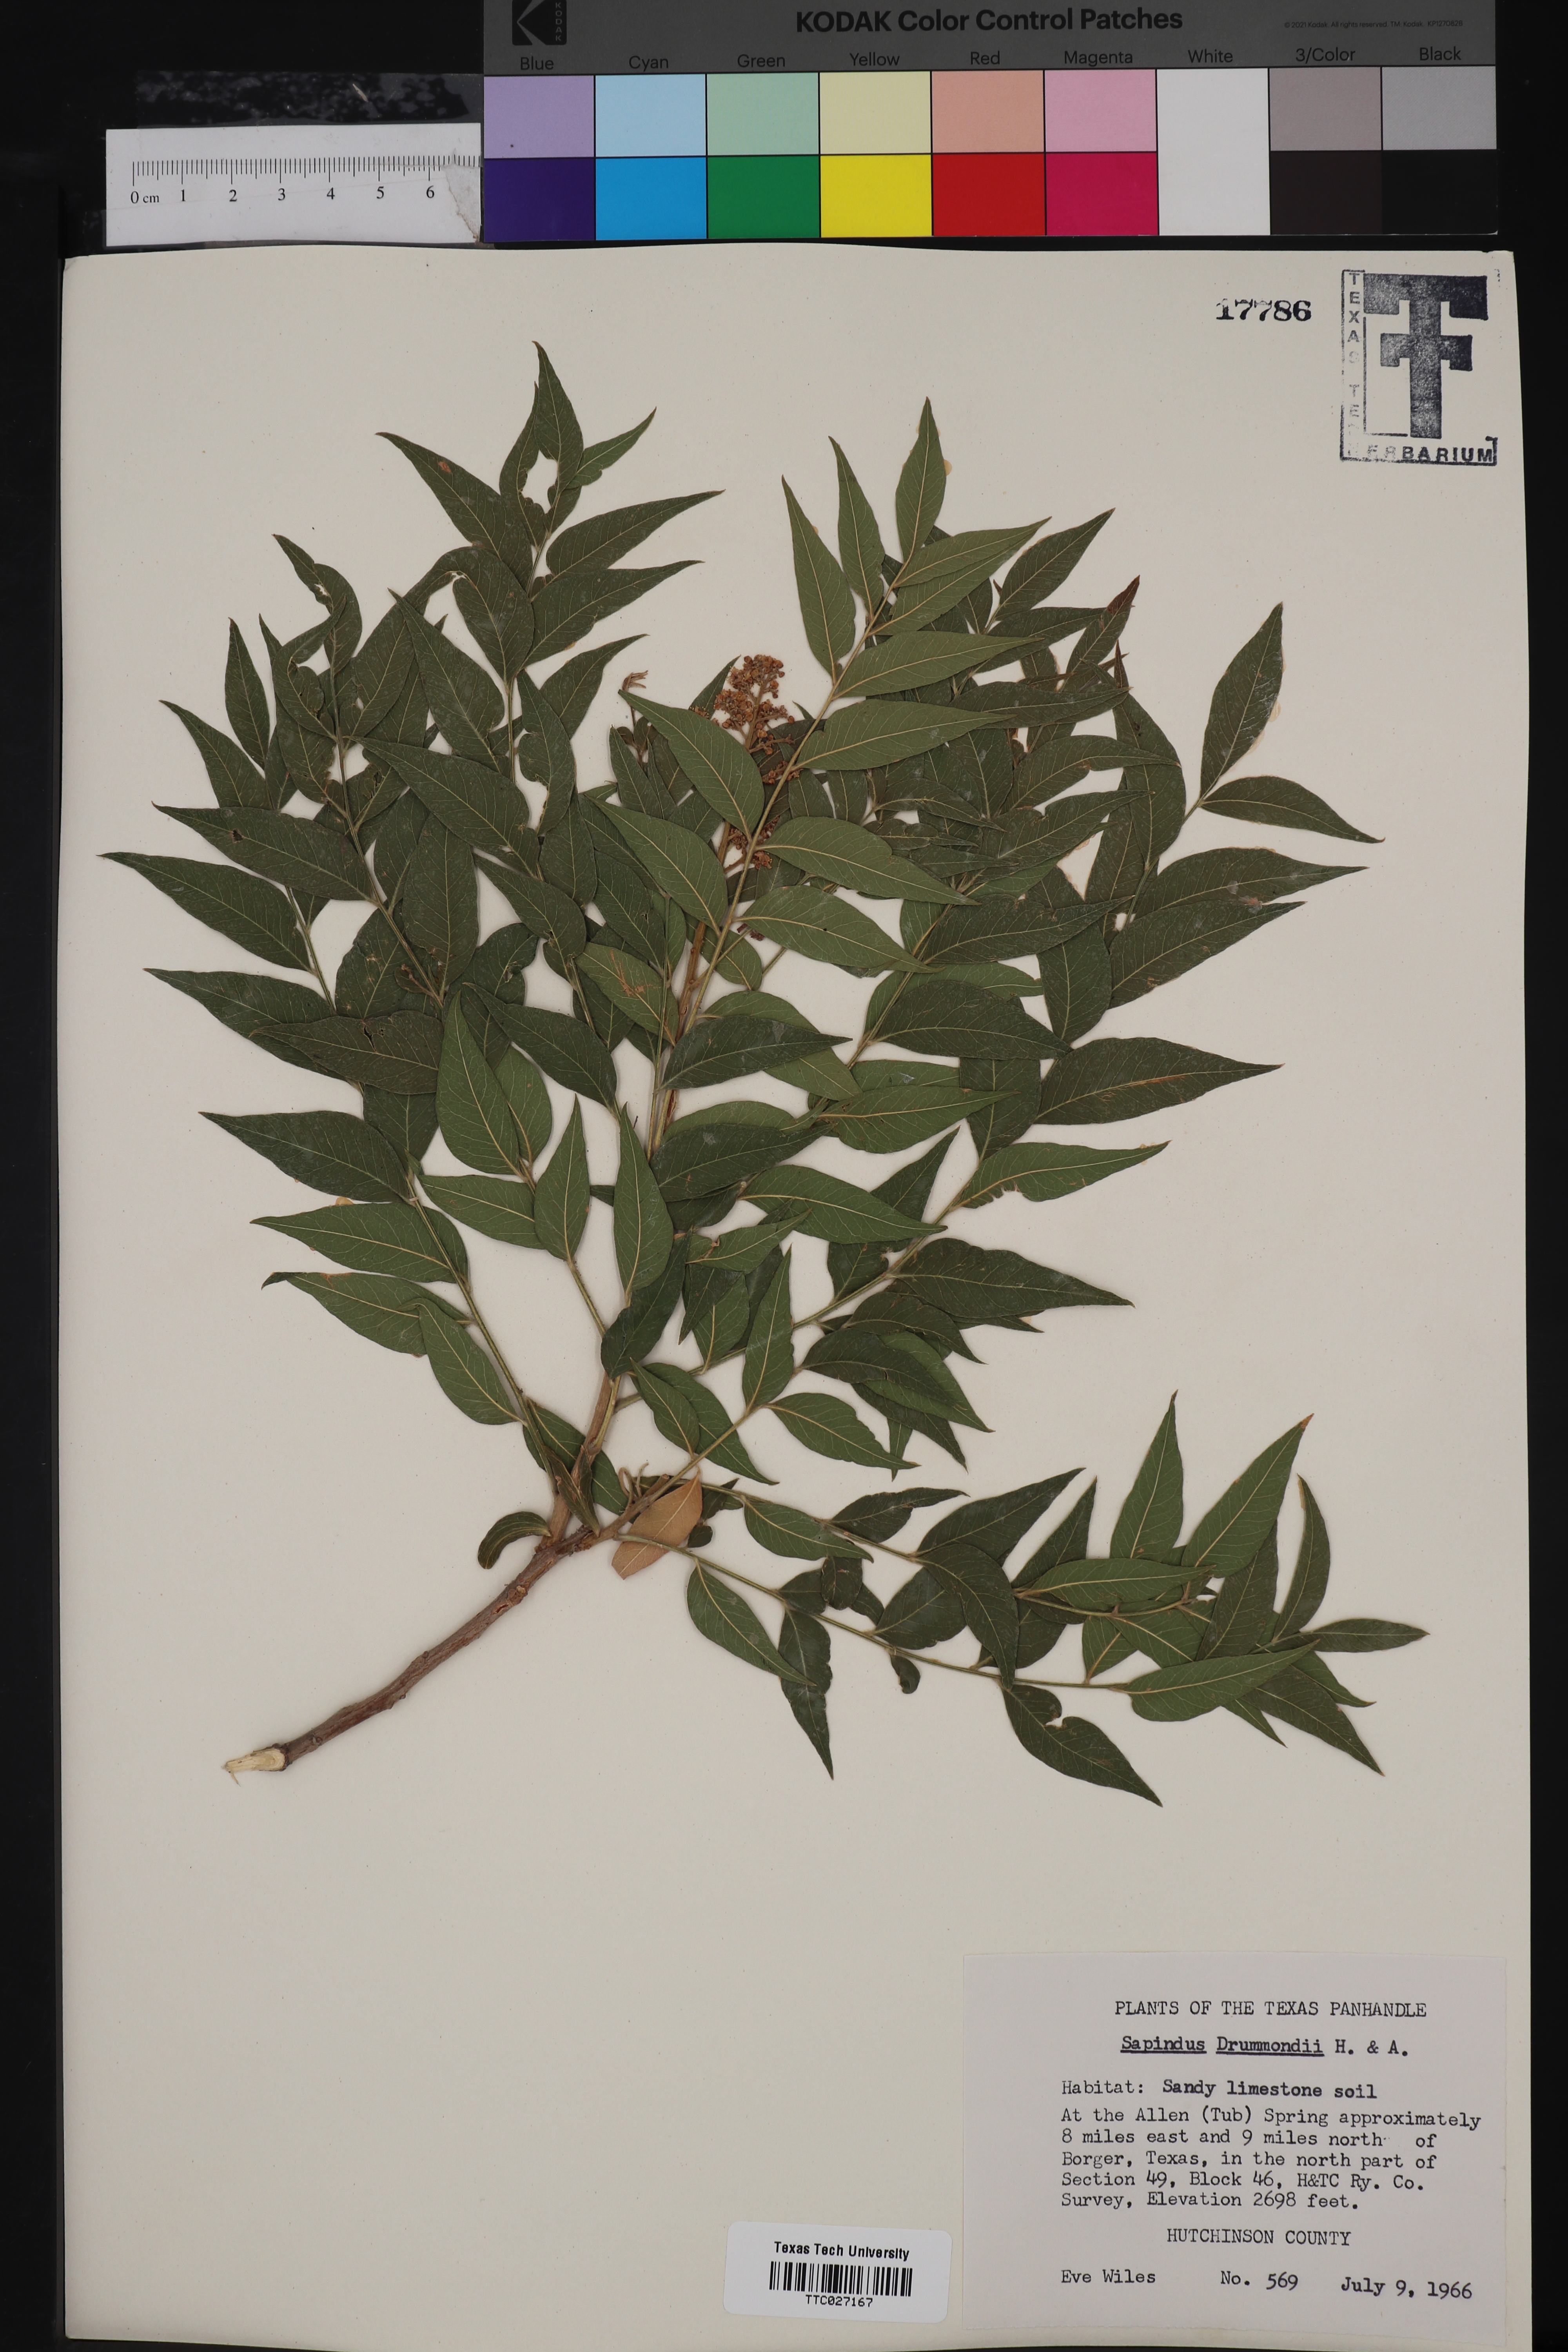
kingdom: Plantae
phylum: Tracheophyta
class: Magnoliopsida
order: Sapindales
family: Sapindaceae
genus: Sapindus
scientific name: Sapindus drummondii
